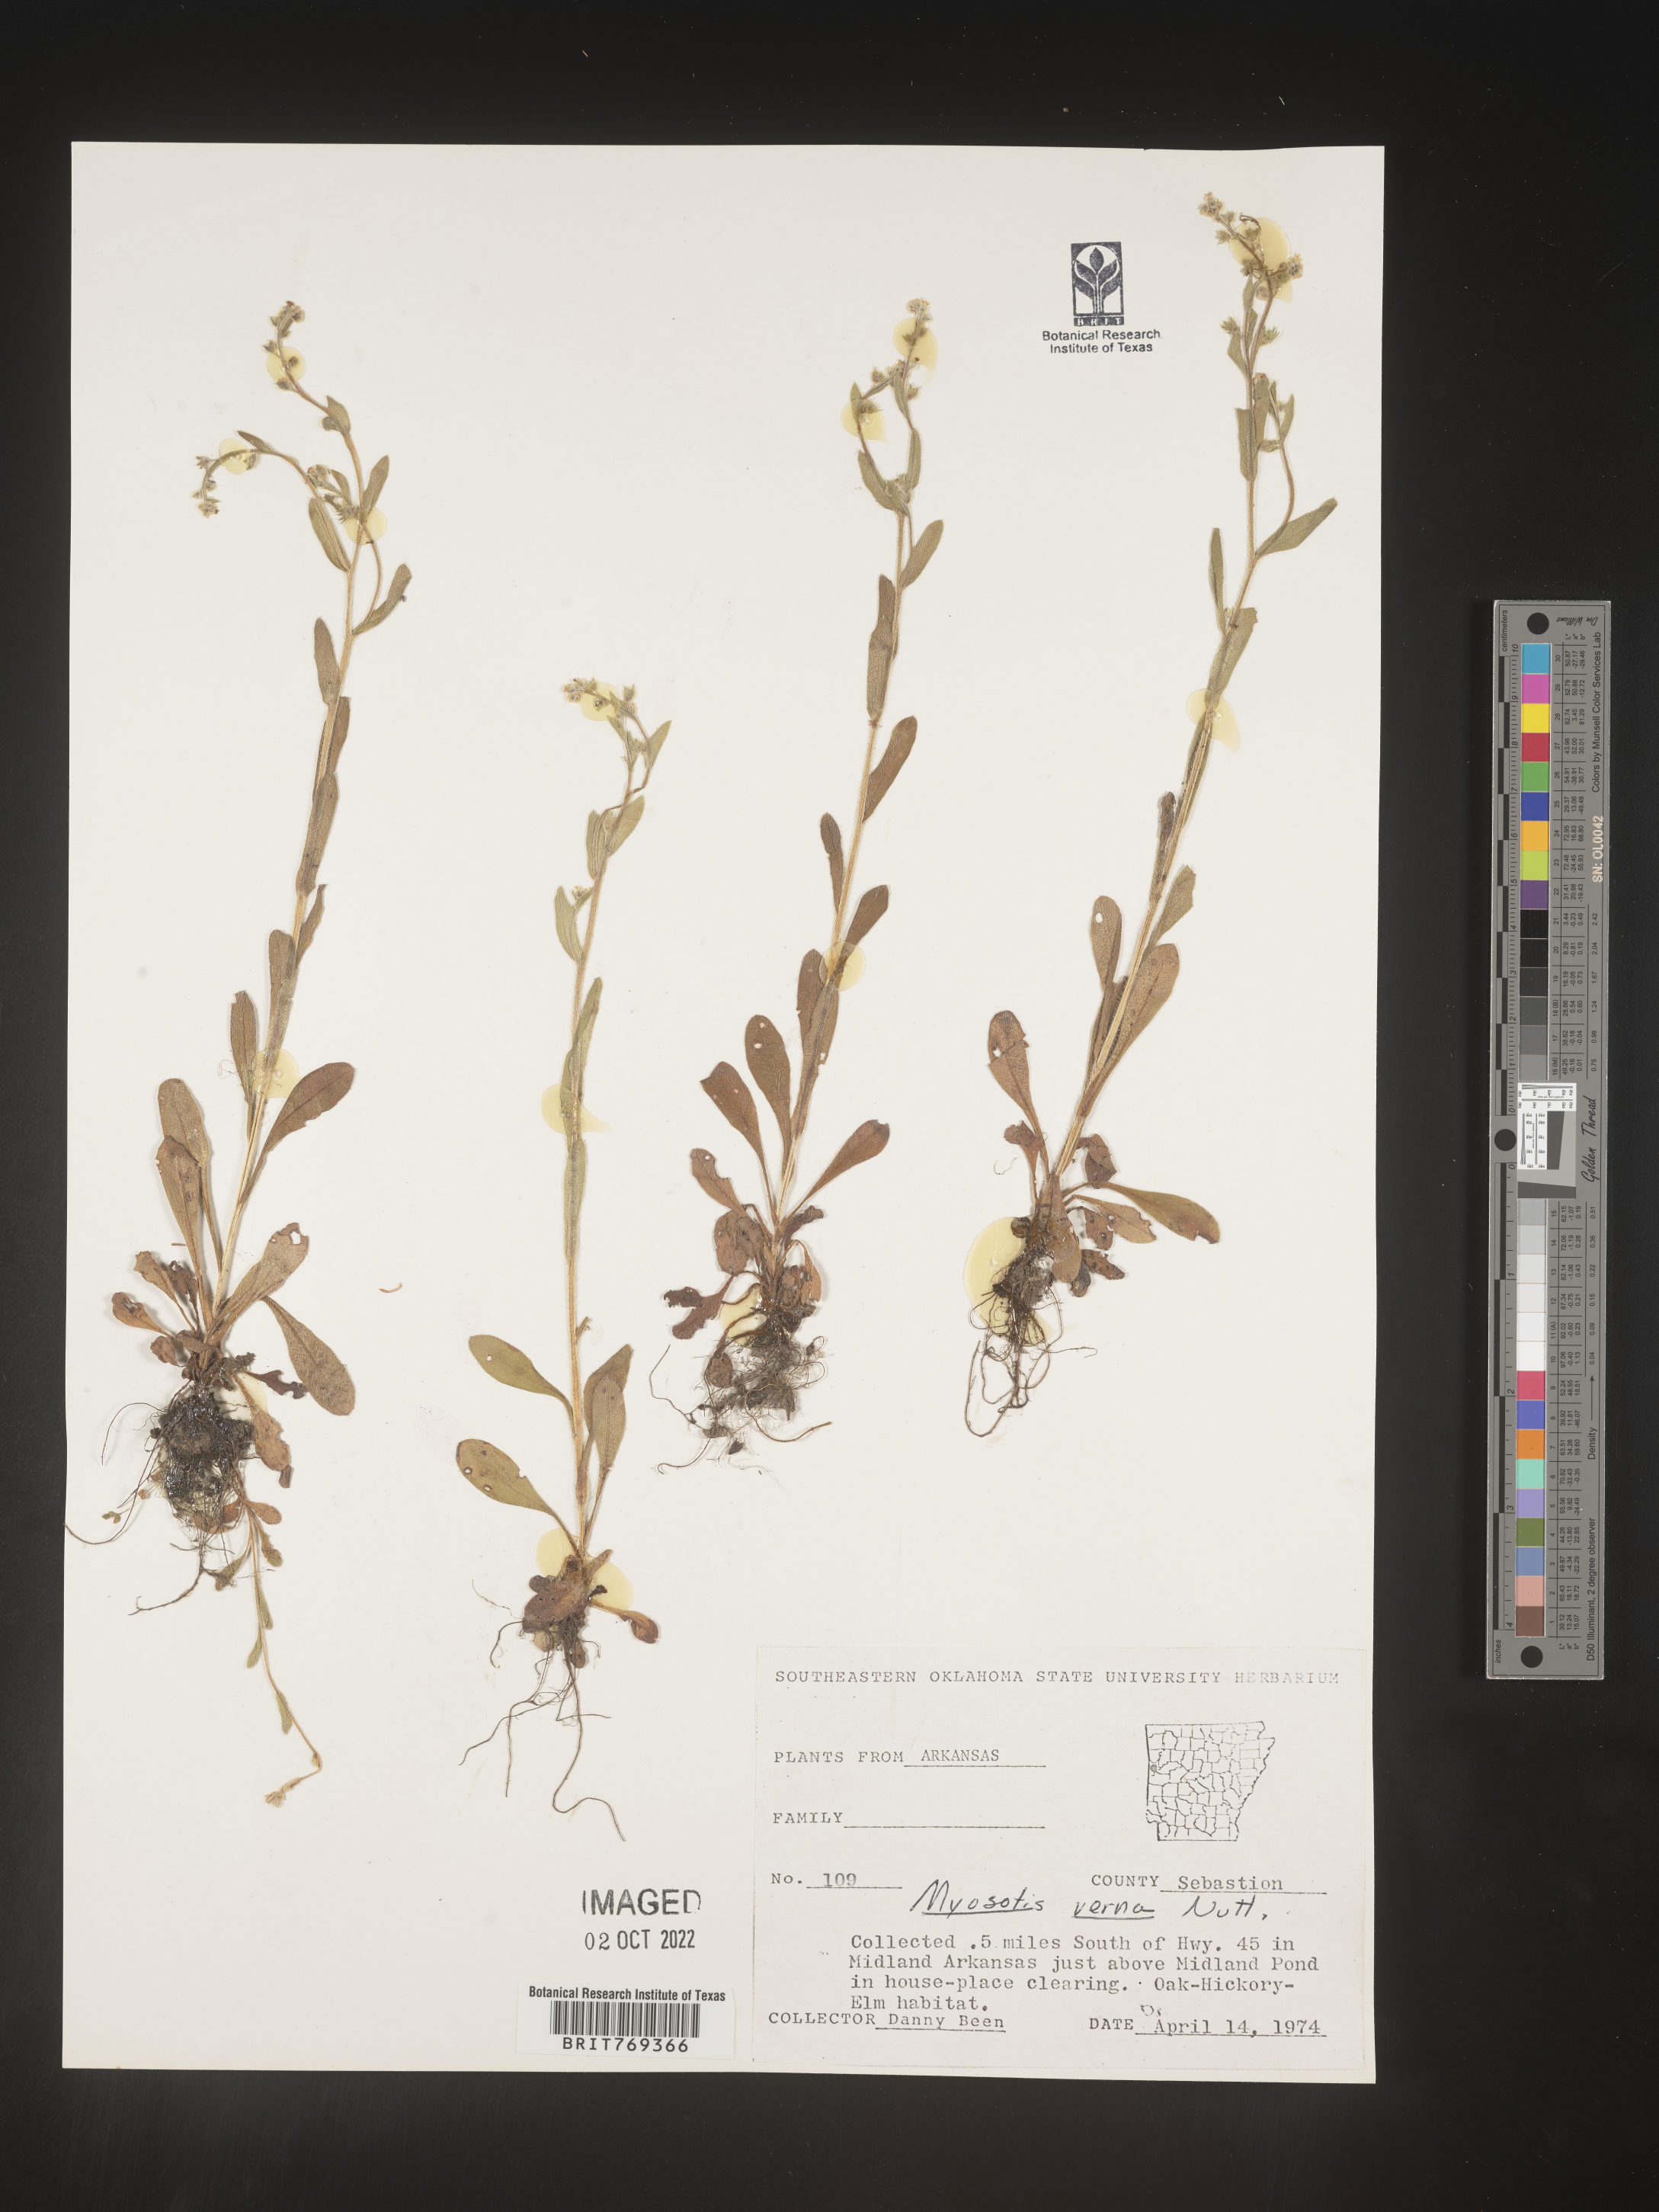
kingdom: Plantae
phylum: Tracheophyta
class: Magnoliopsida
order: Boraginales
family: Boraginaceae
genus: Myosotis
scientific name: Myosotis macrosperma
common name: Large-seed forget-me-not
